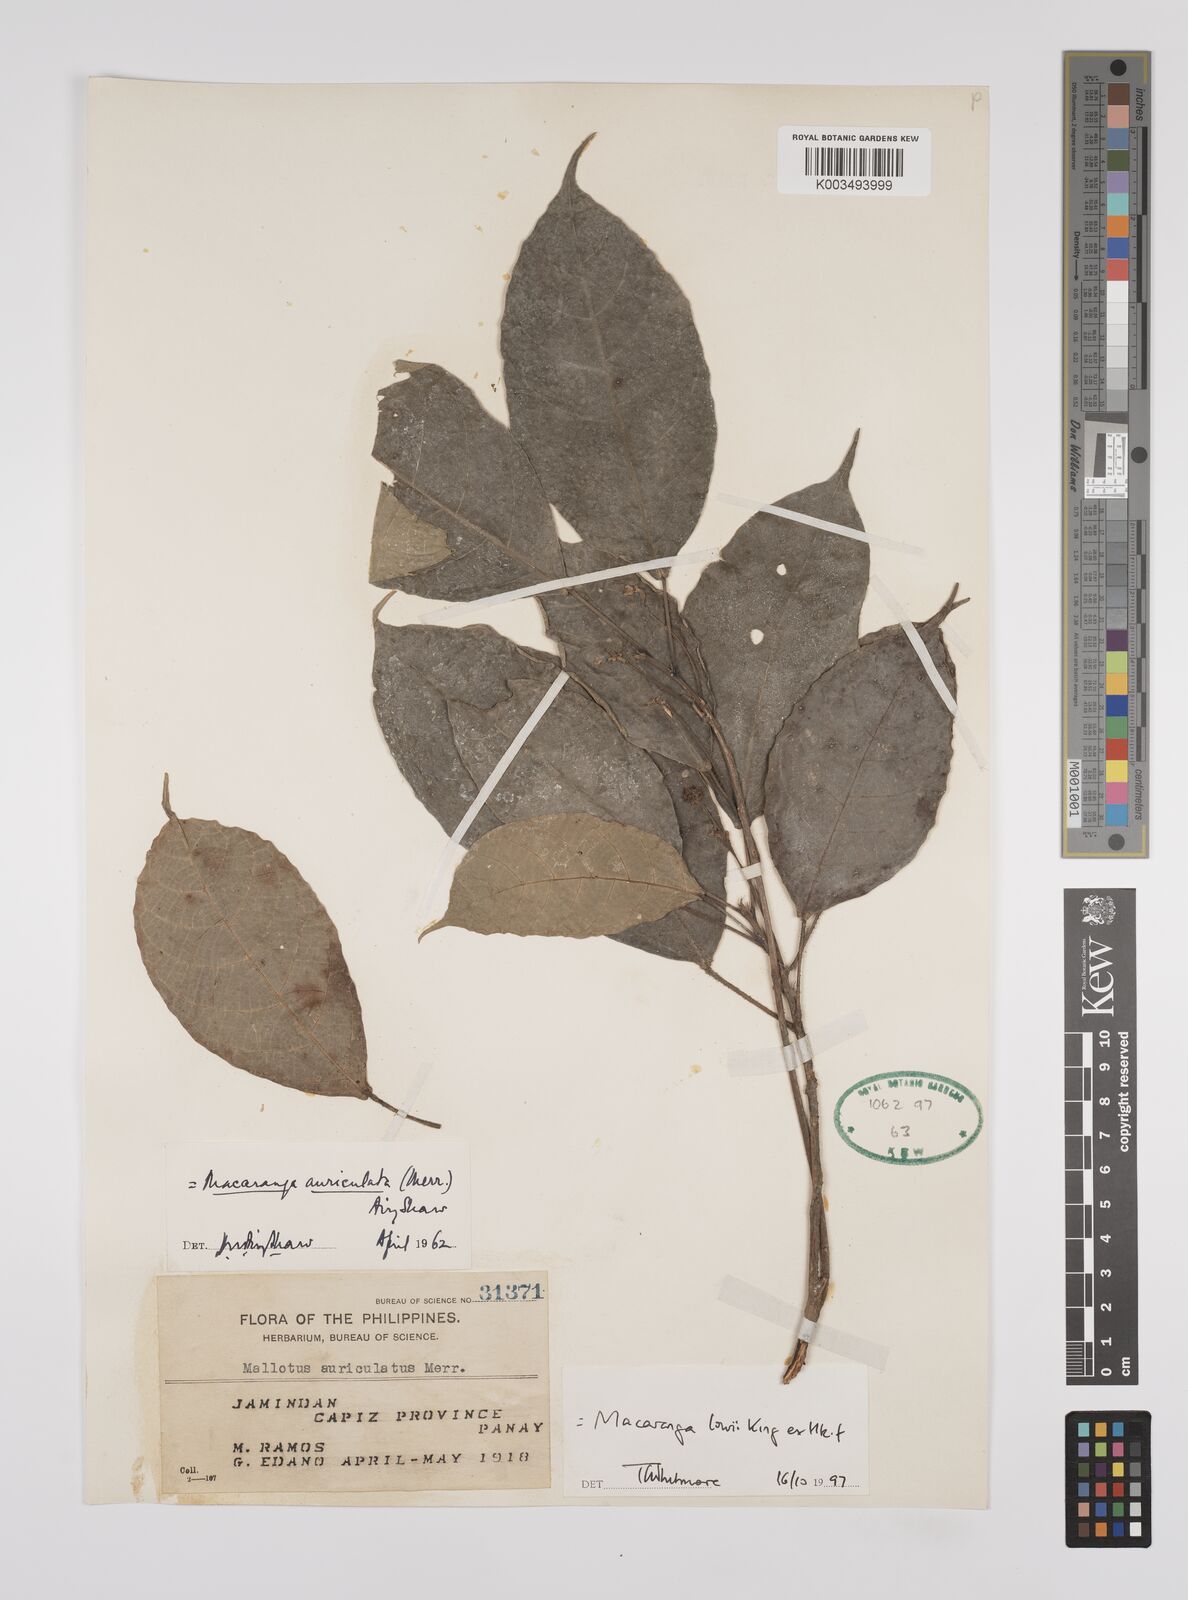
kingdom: Plantae
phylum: Tracheophyta
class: Magnoliopsida
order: Malpighiales
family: Euphorbiaceae
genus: Macaranga
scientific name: Macaranga lowii
